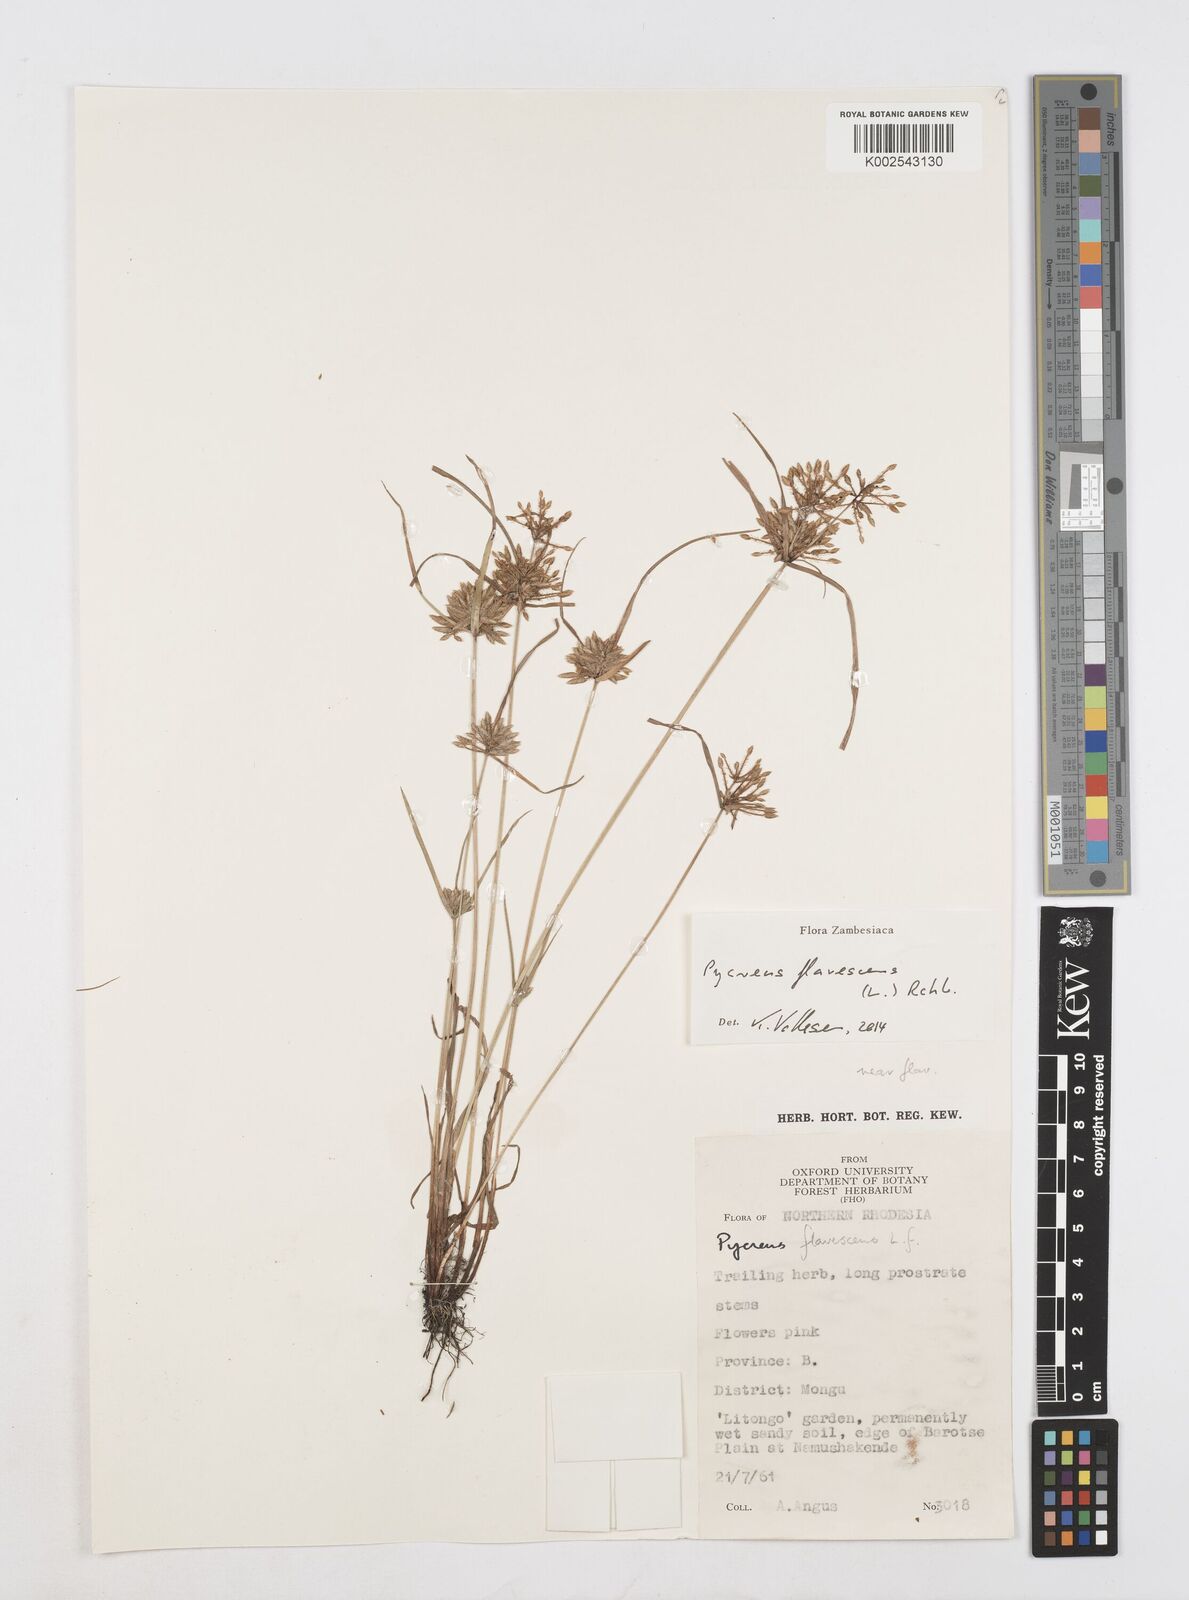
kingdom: Plantae
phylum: Tracheophyta
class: Liliopsida
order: Poales
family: Cyperaceae
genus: Cyperus
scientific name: Cyperus flavescens
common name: Yellow galingale
